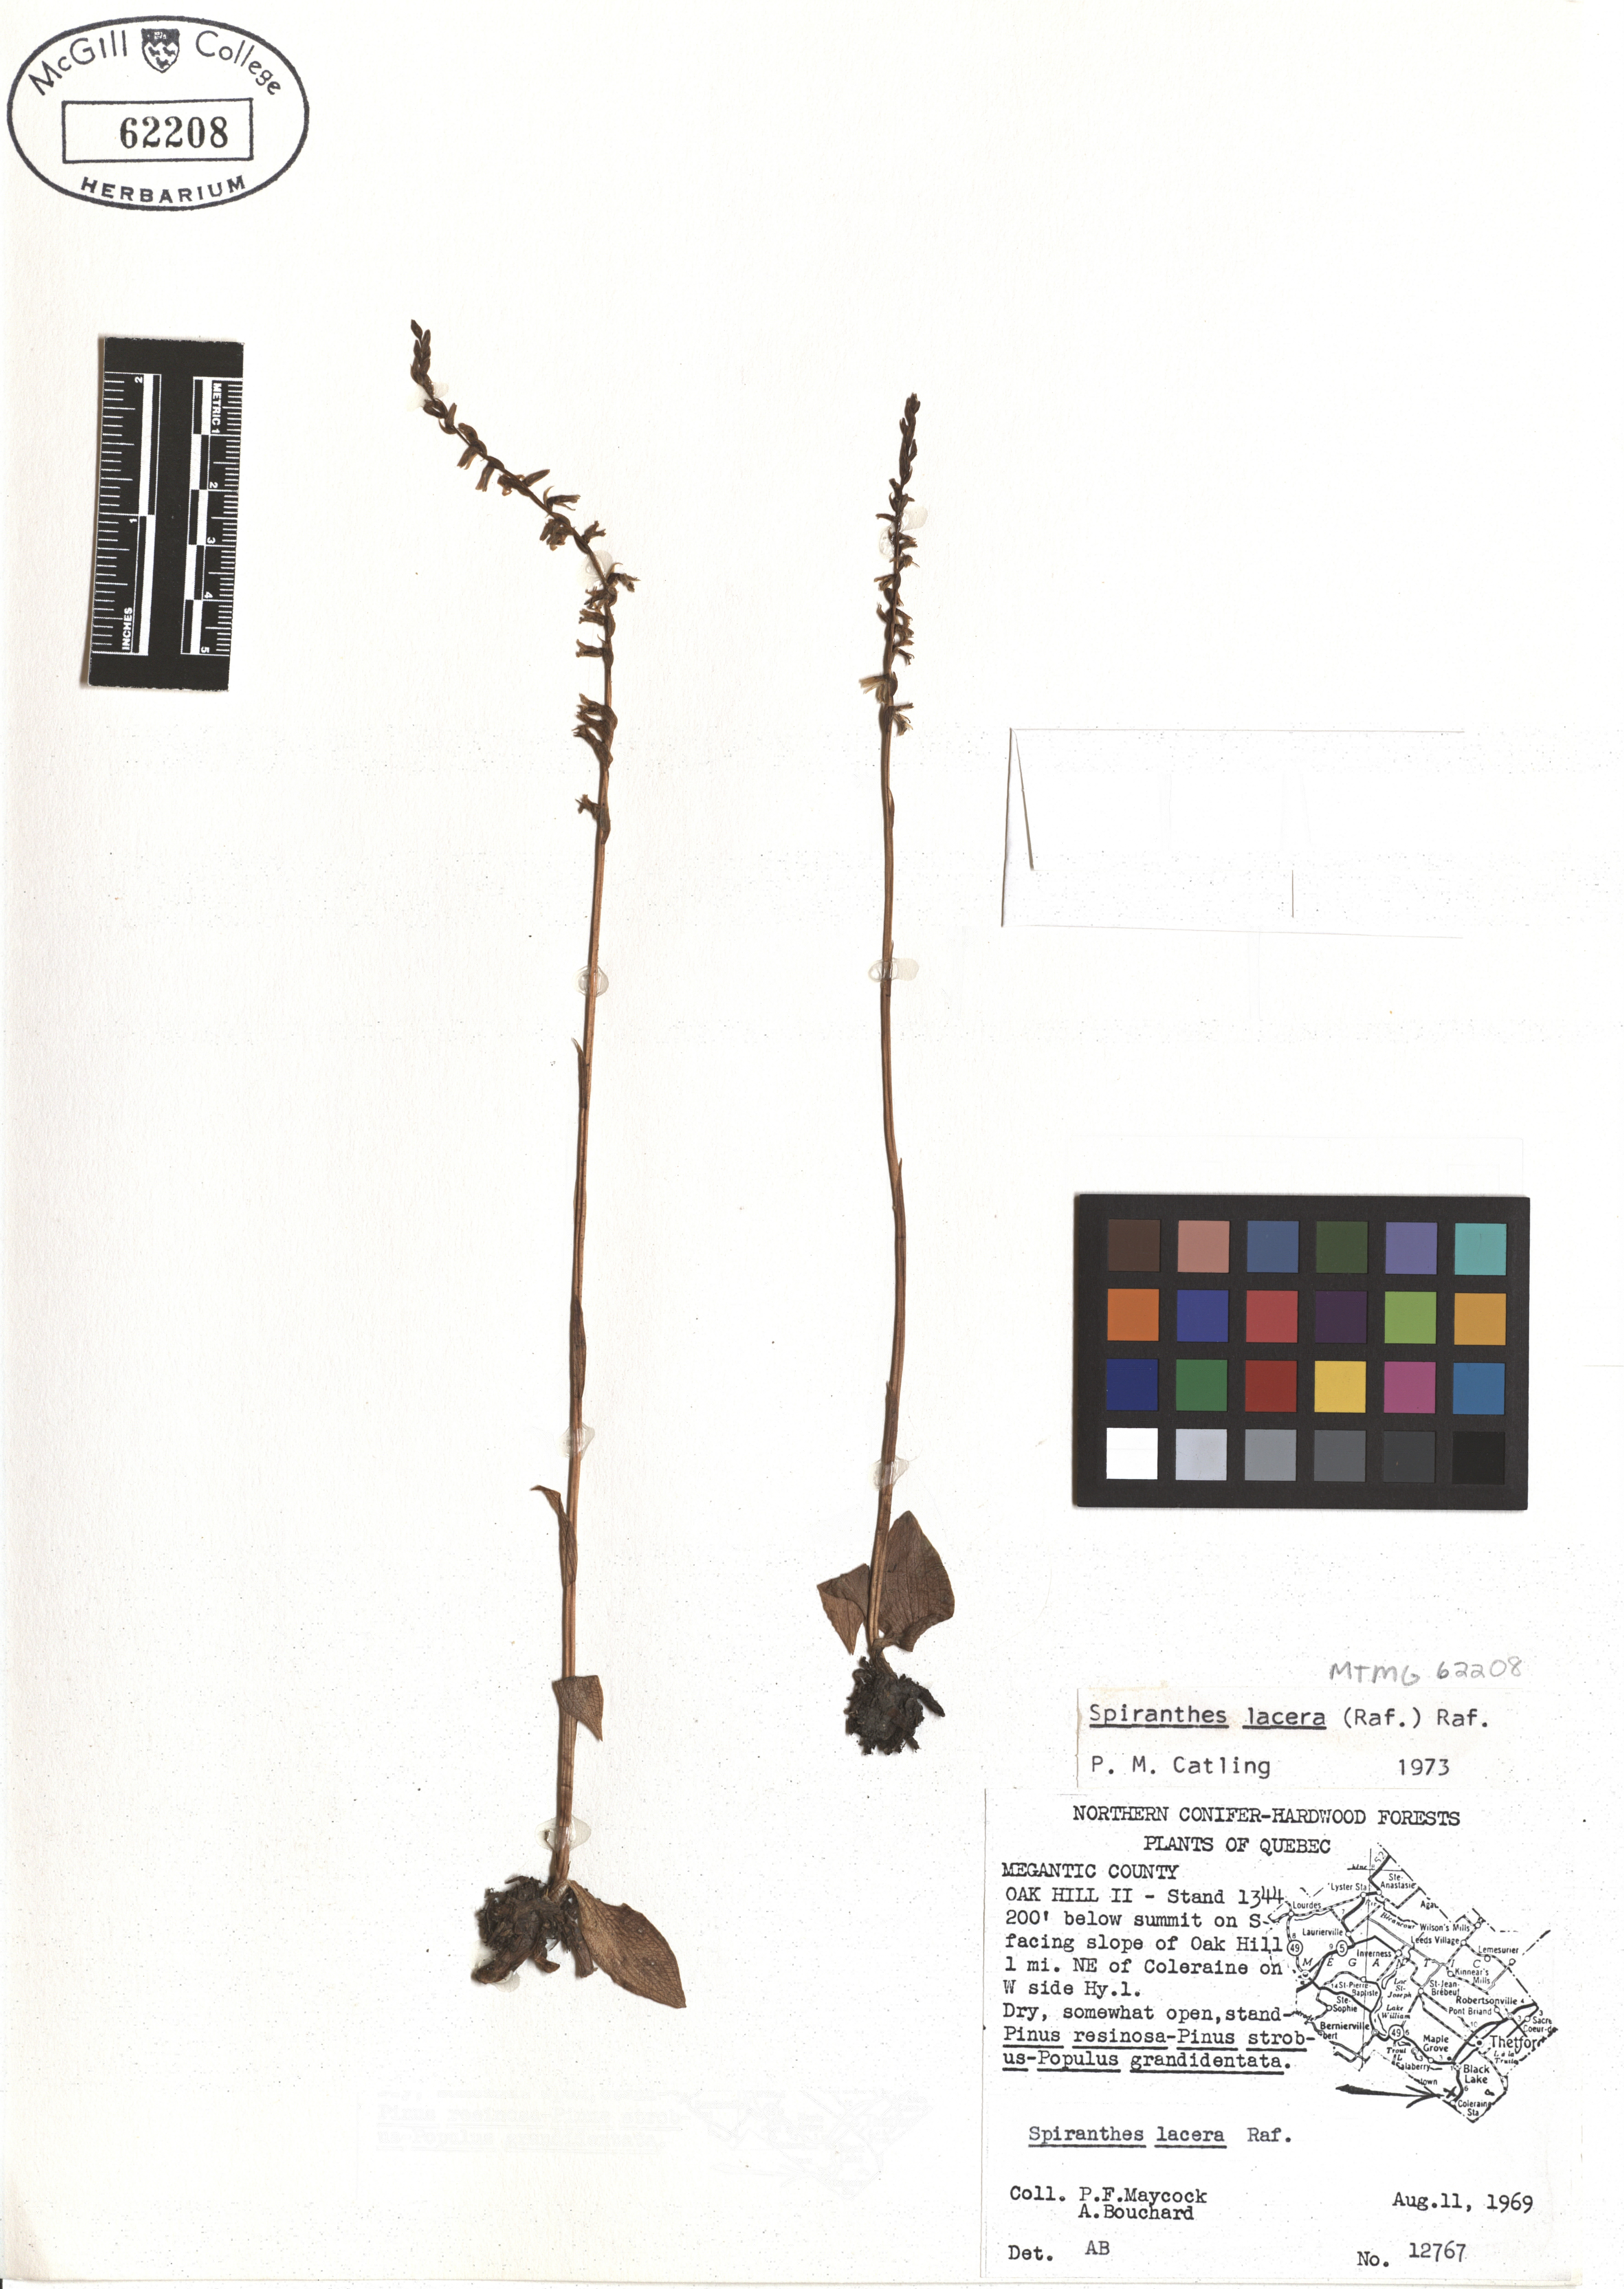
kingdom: Plantae
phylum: Tracheophyta
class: Liliopsida
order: Asparagales
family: Orchidaceae
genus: Spiranthes
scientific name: Spiranthes lacera
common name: Northern slender ladies'-tresses
